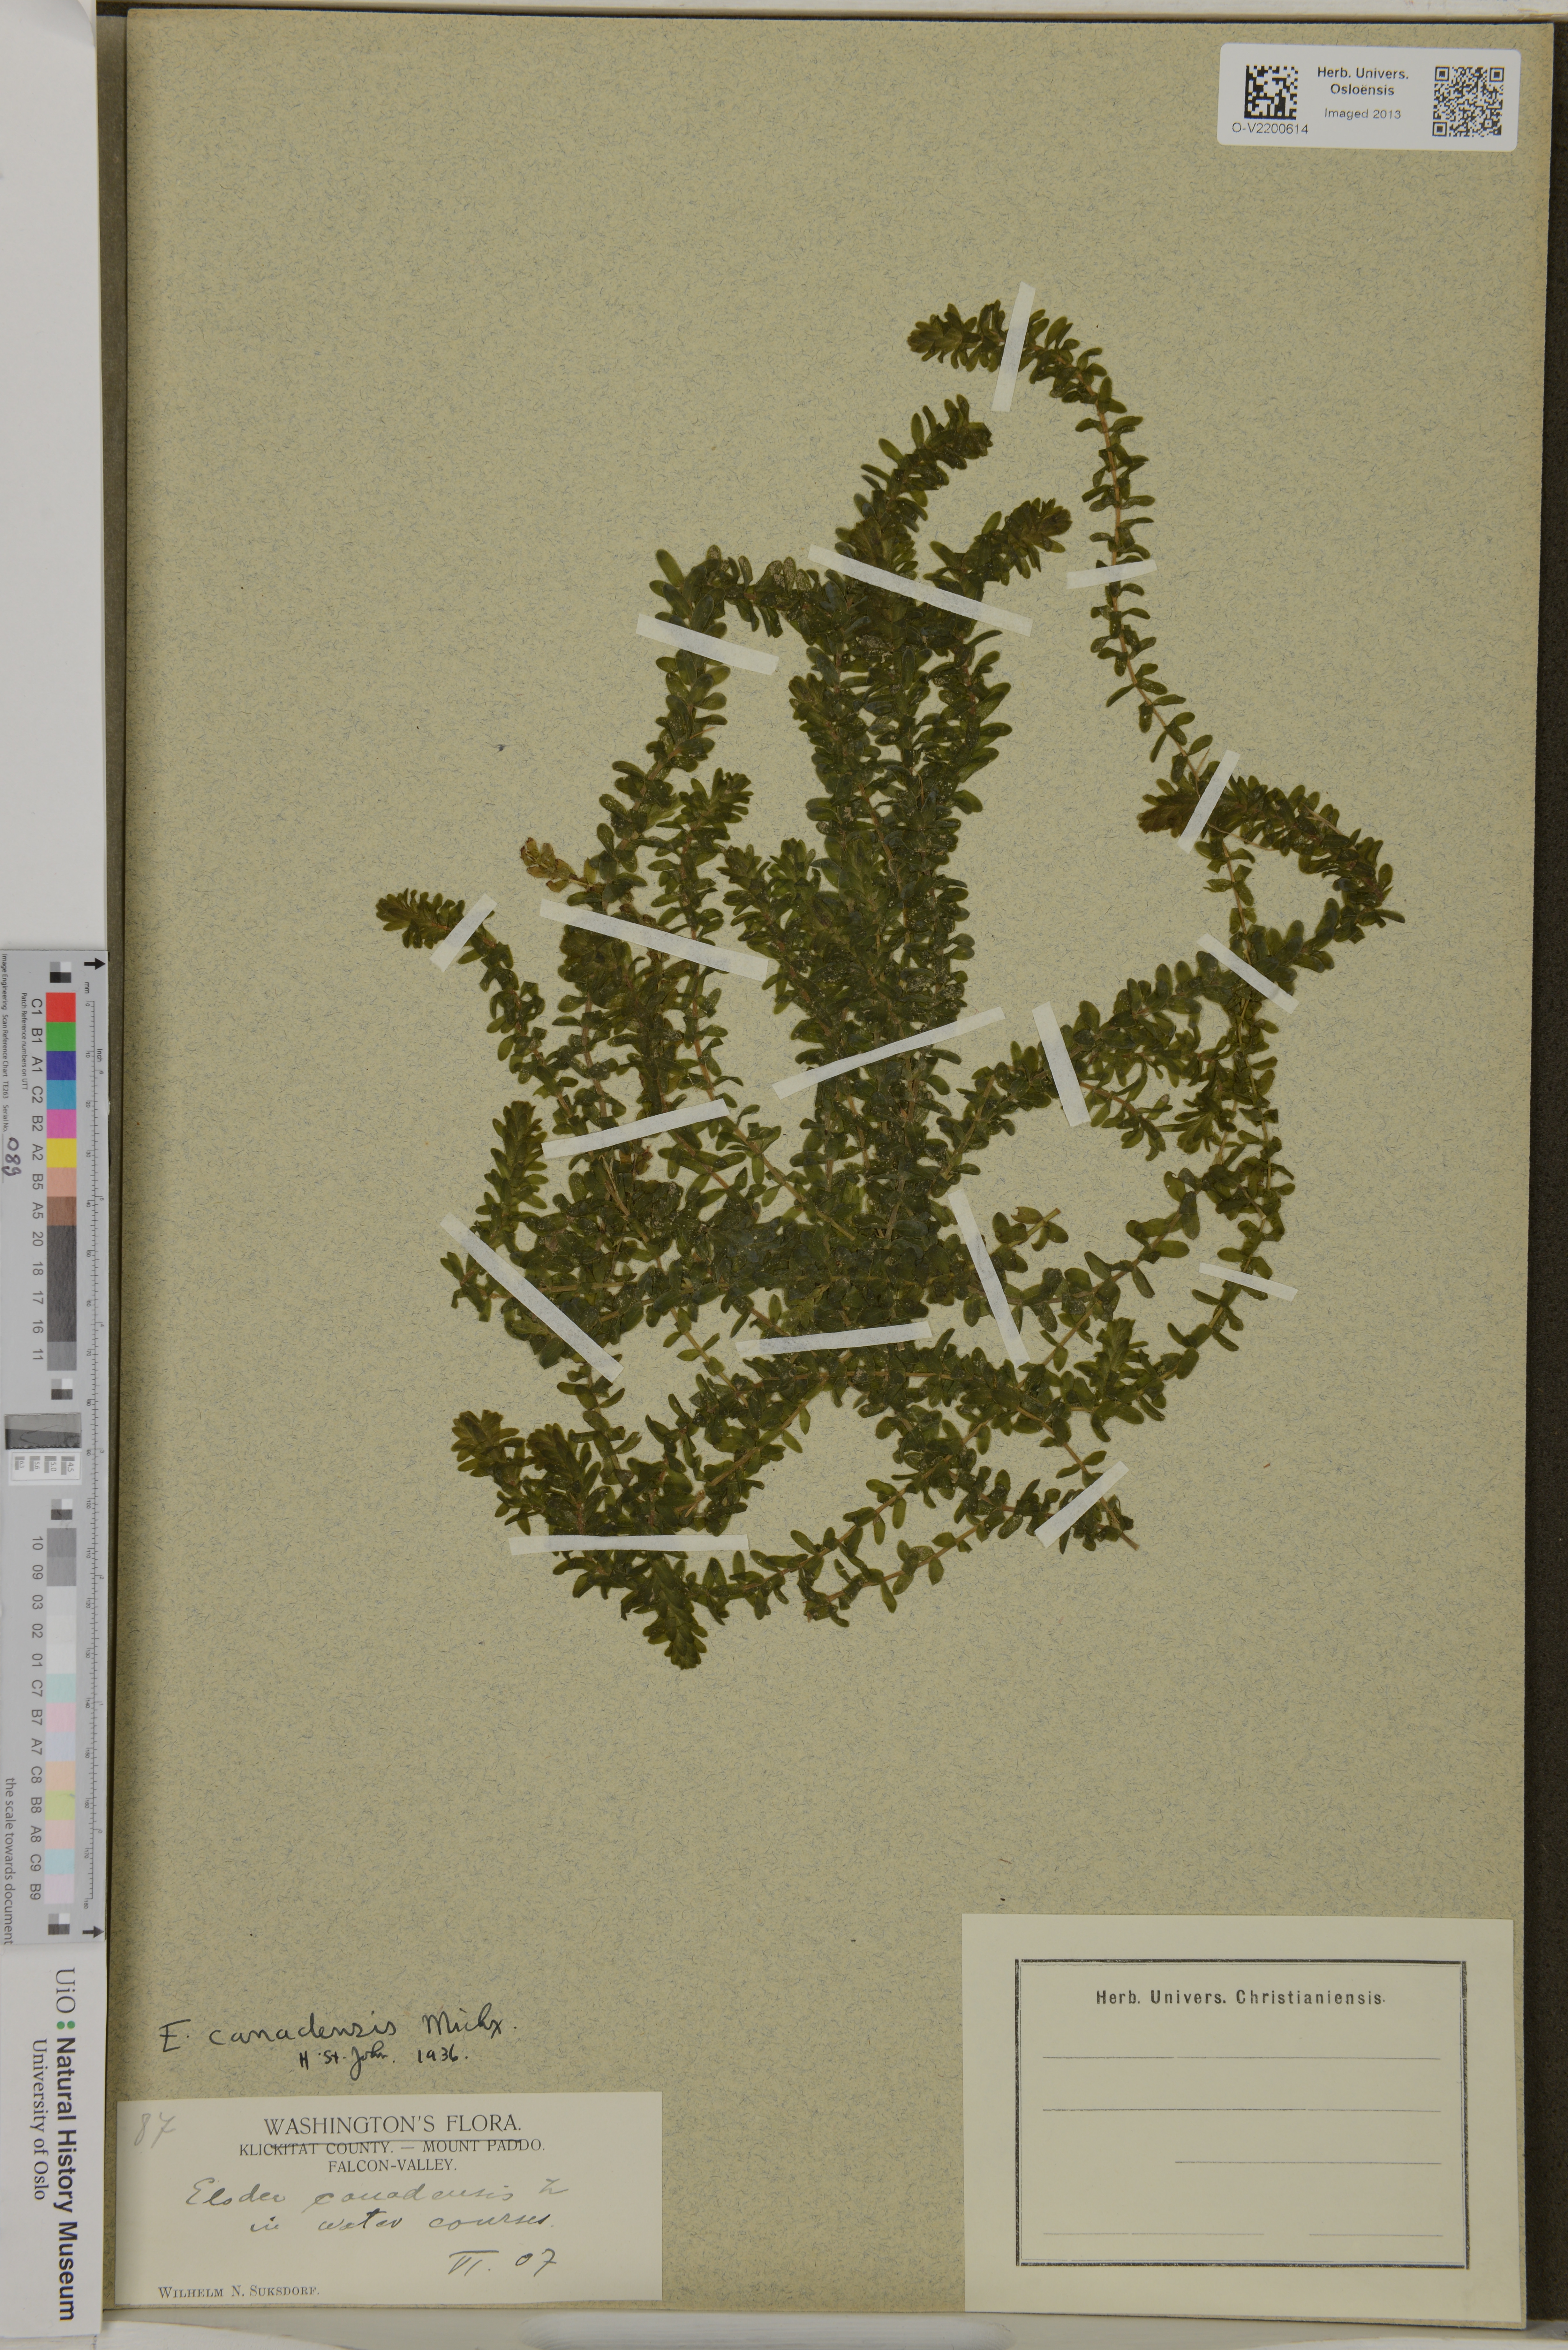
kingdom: Plantae
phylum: Tracheophyta
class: Liliopsida
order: Alismatales
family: Hydrocharitaceae
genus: Elodea
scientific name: Elodea canadensis
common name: Canadian waterweed
